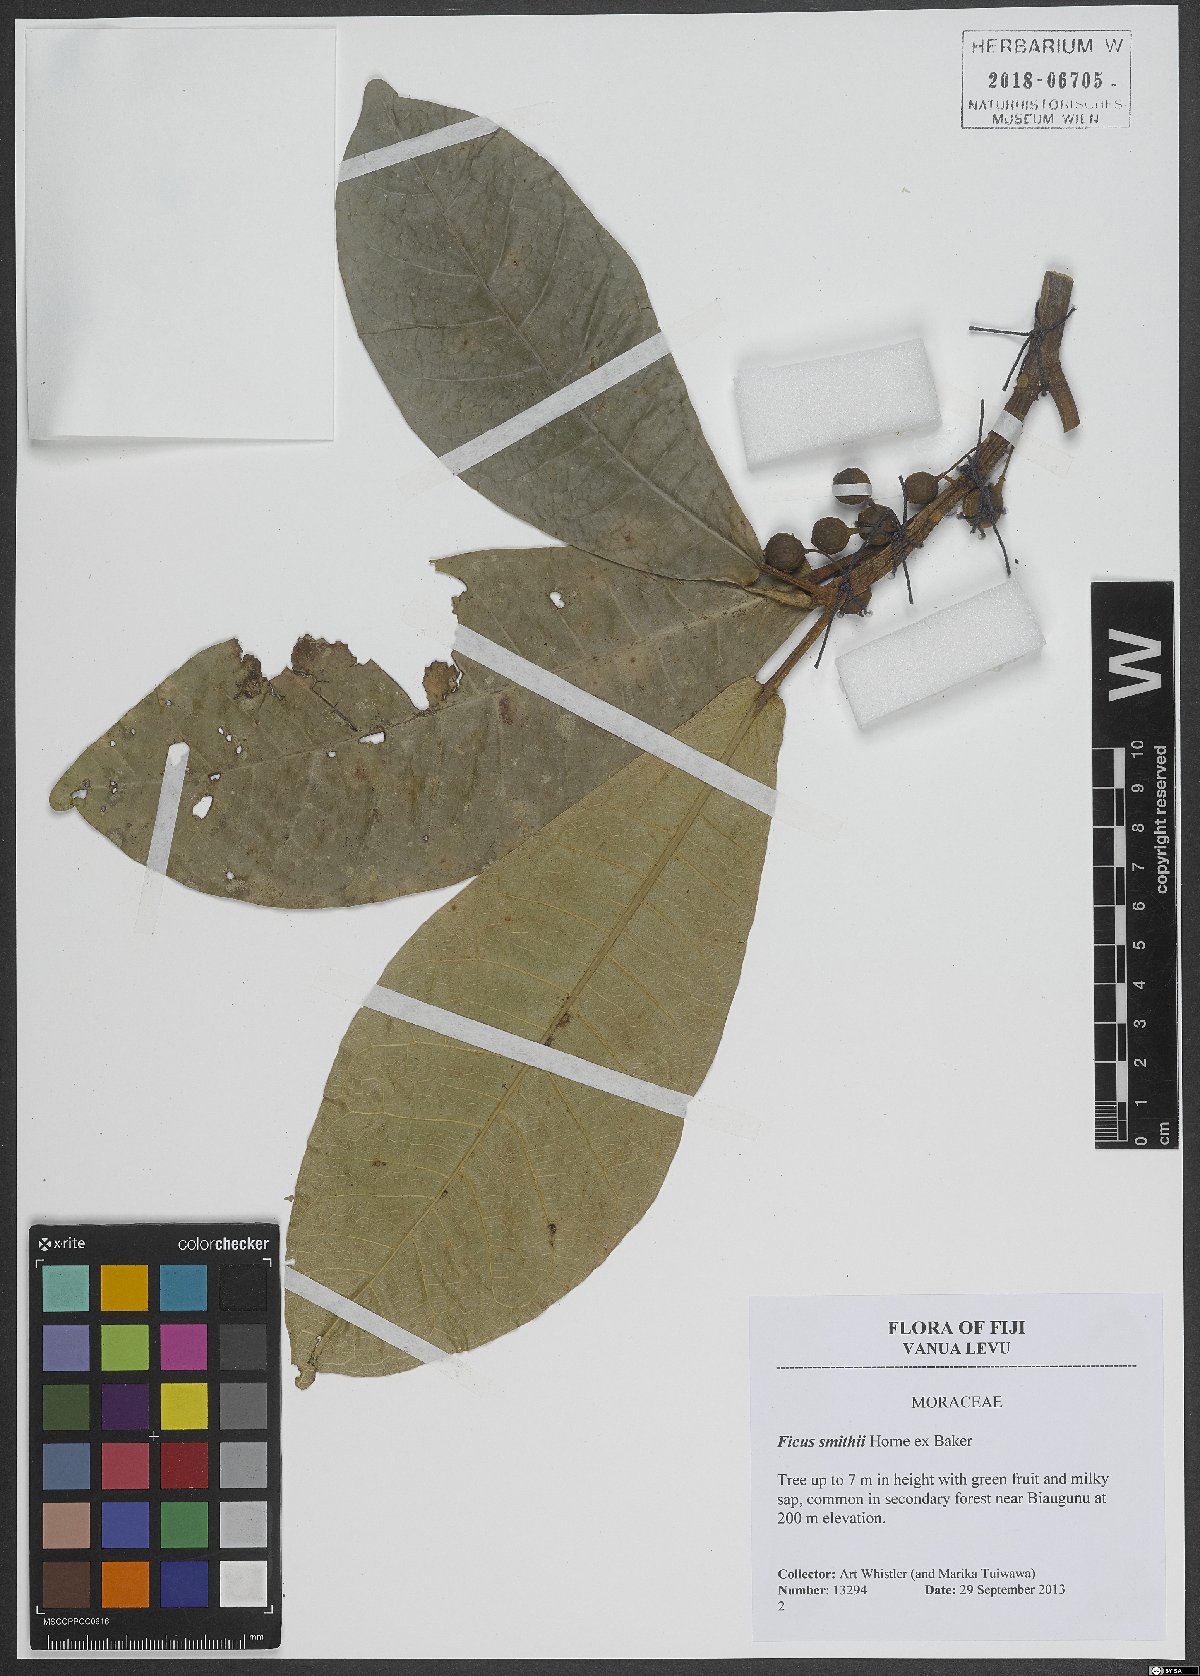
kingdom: Plantae
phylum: Tracheophyta
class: Magnoliopsida
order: Rosales
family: Moraceae
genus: Ficus
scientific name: Ficus smithii
